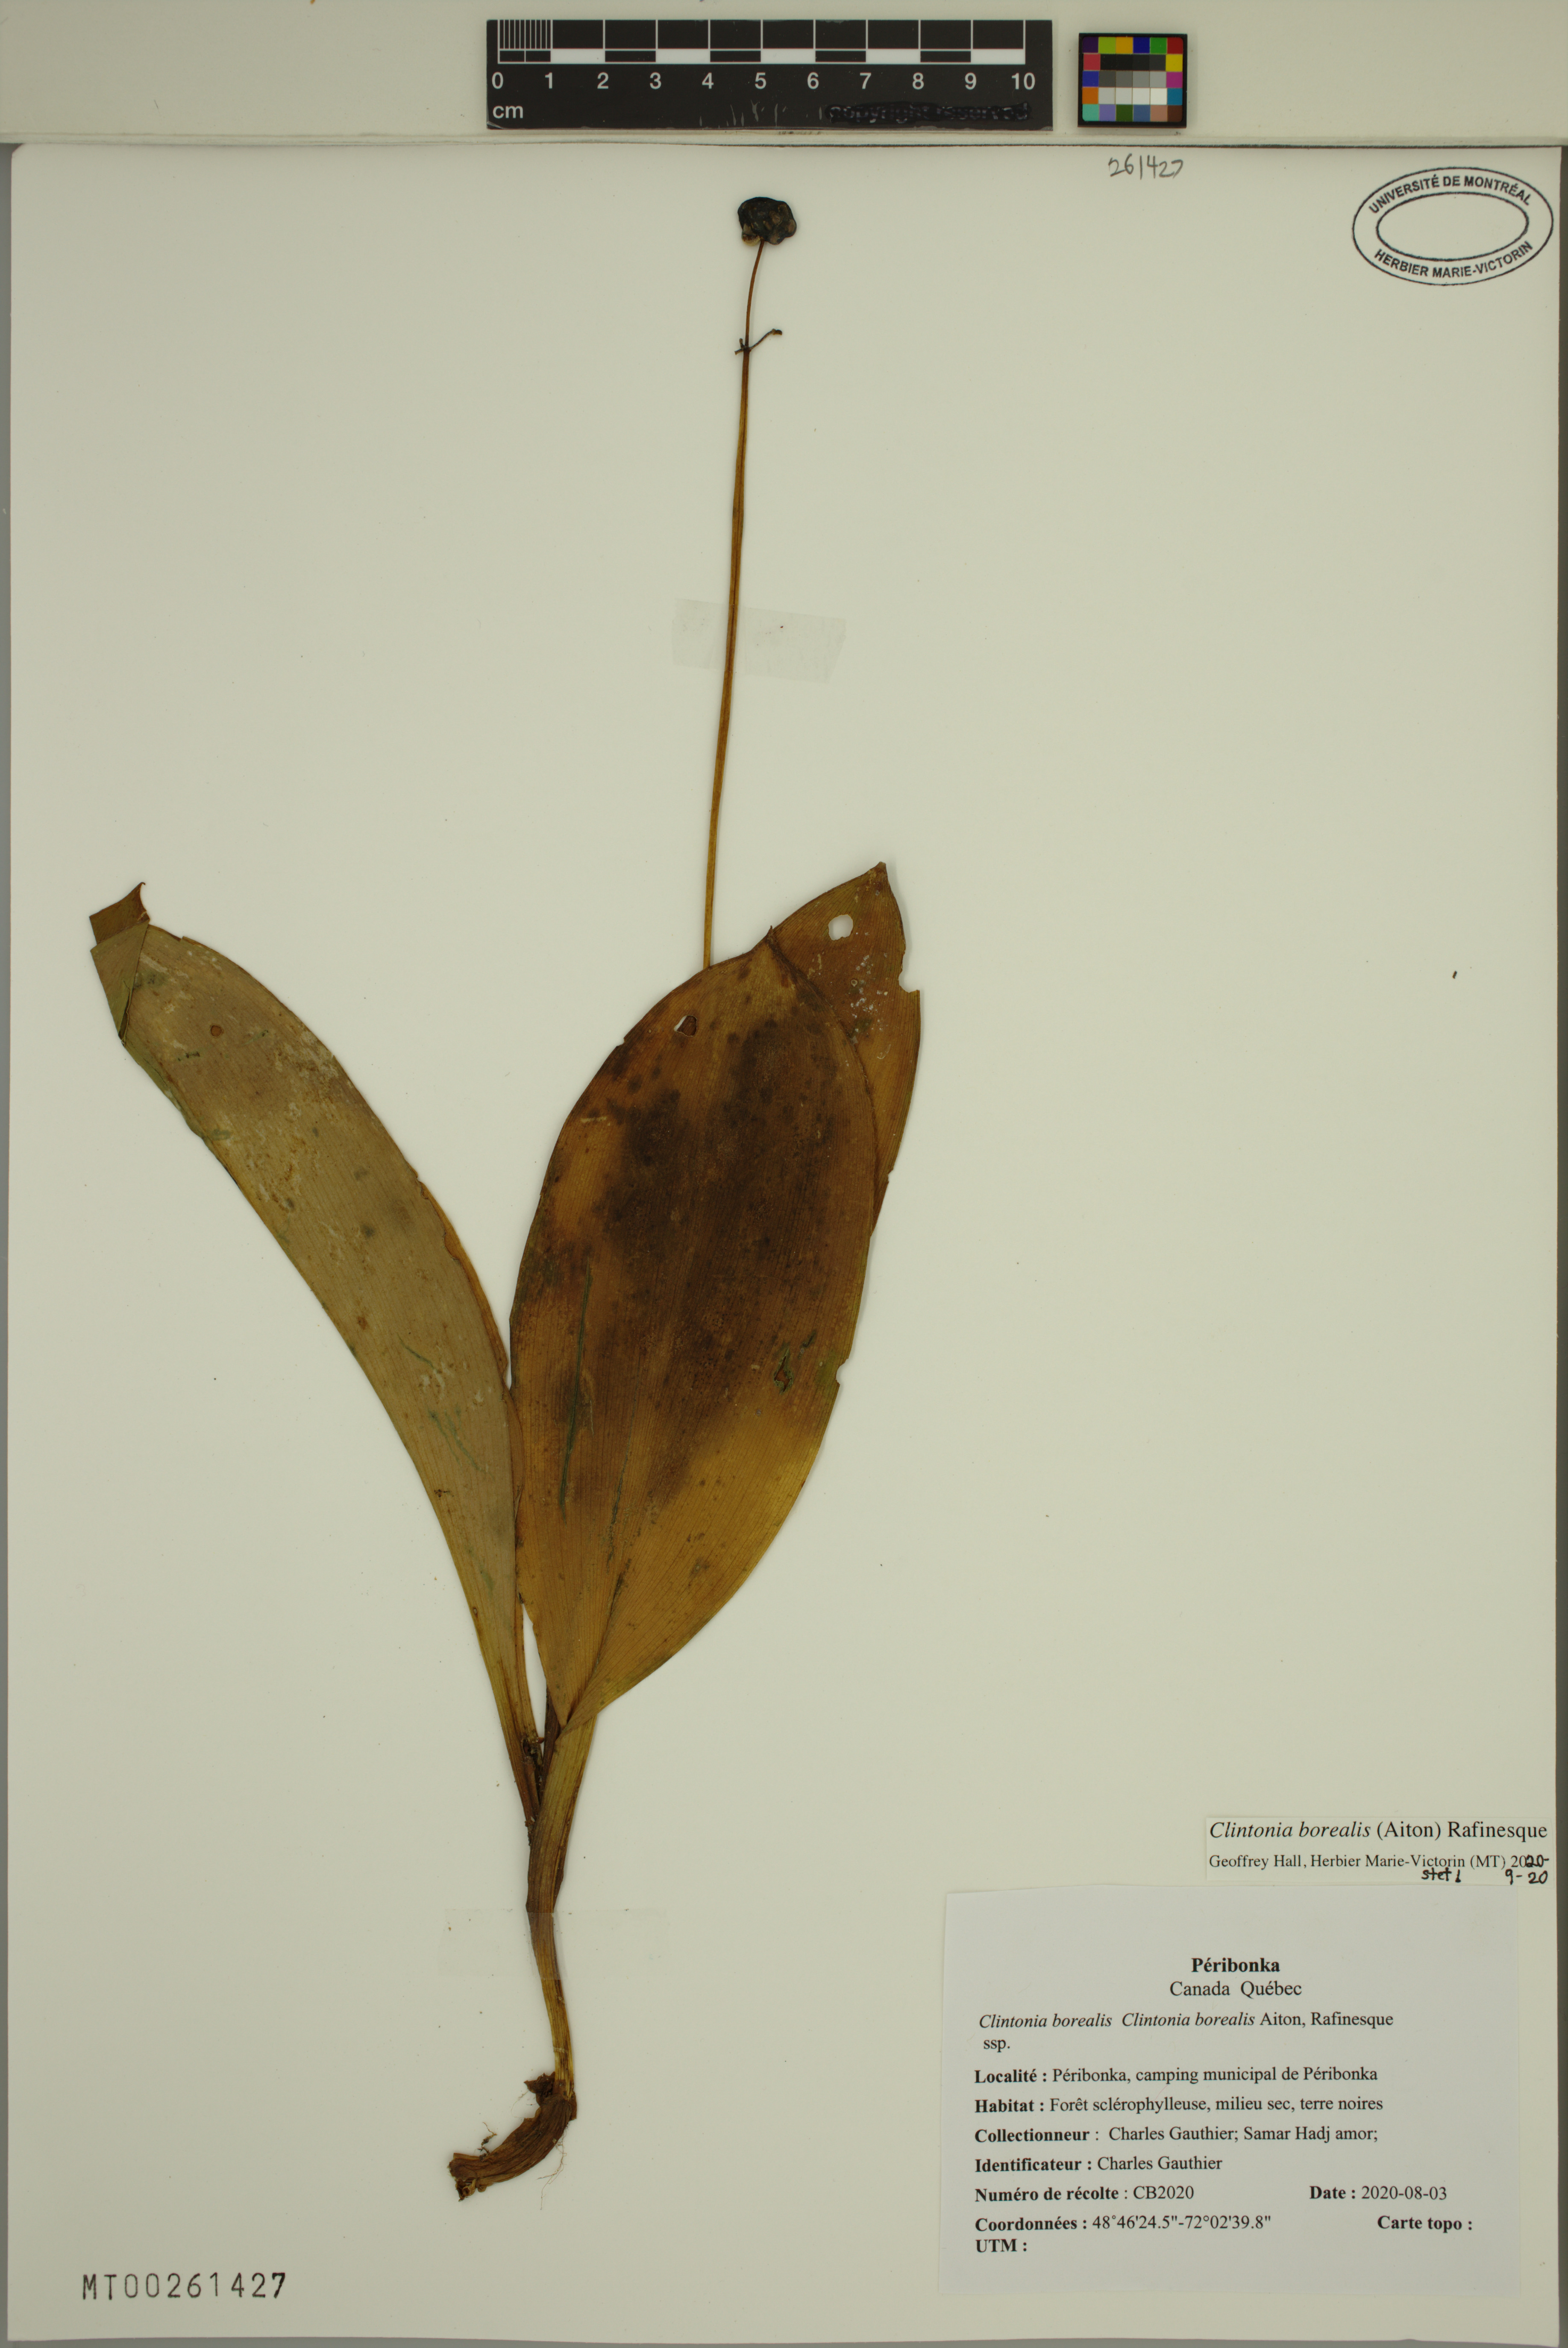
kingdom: Plantae
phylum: Tracheophyta
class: Liliopsida
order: Liliales
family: Liliaceae
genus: Clintonia
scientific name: Clintonia borealis
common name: Yellow clintonia
